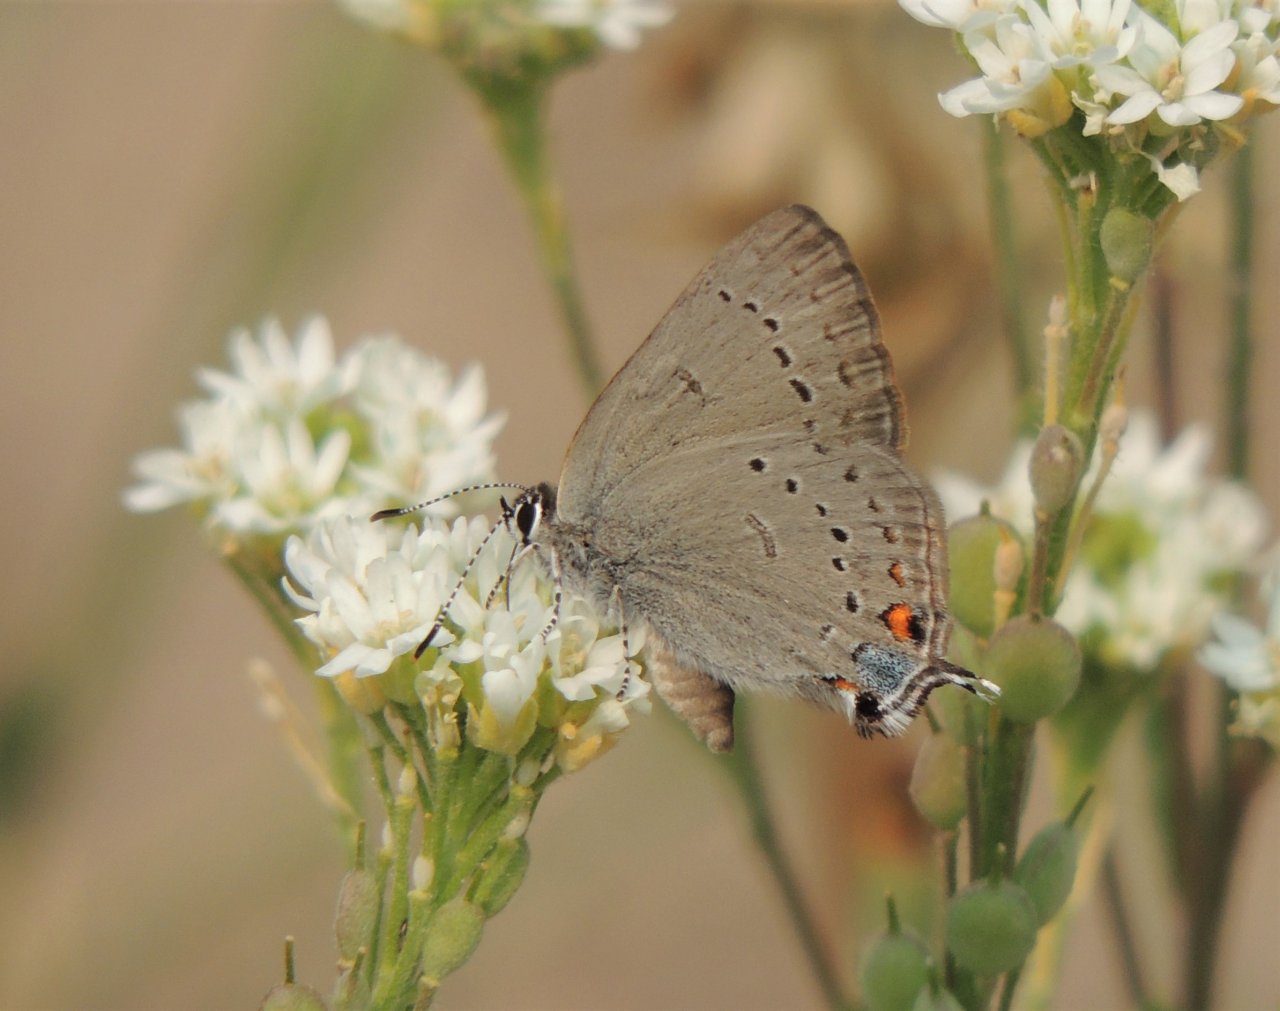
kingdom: Animalia
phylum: Arthropoda
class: Insecta
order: Lepidoptera
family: Lycaenidae
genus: Strymon
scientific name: Strymon sylvinus
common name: Sylvan Hairstreak
